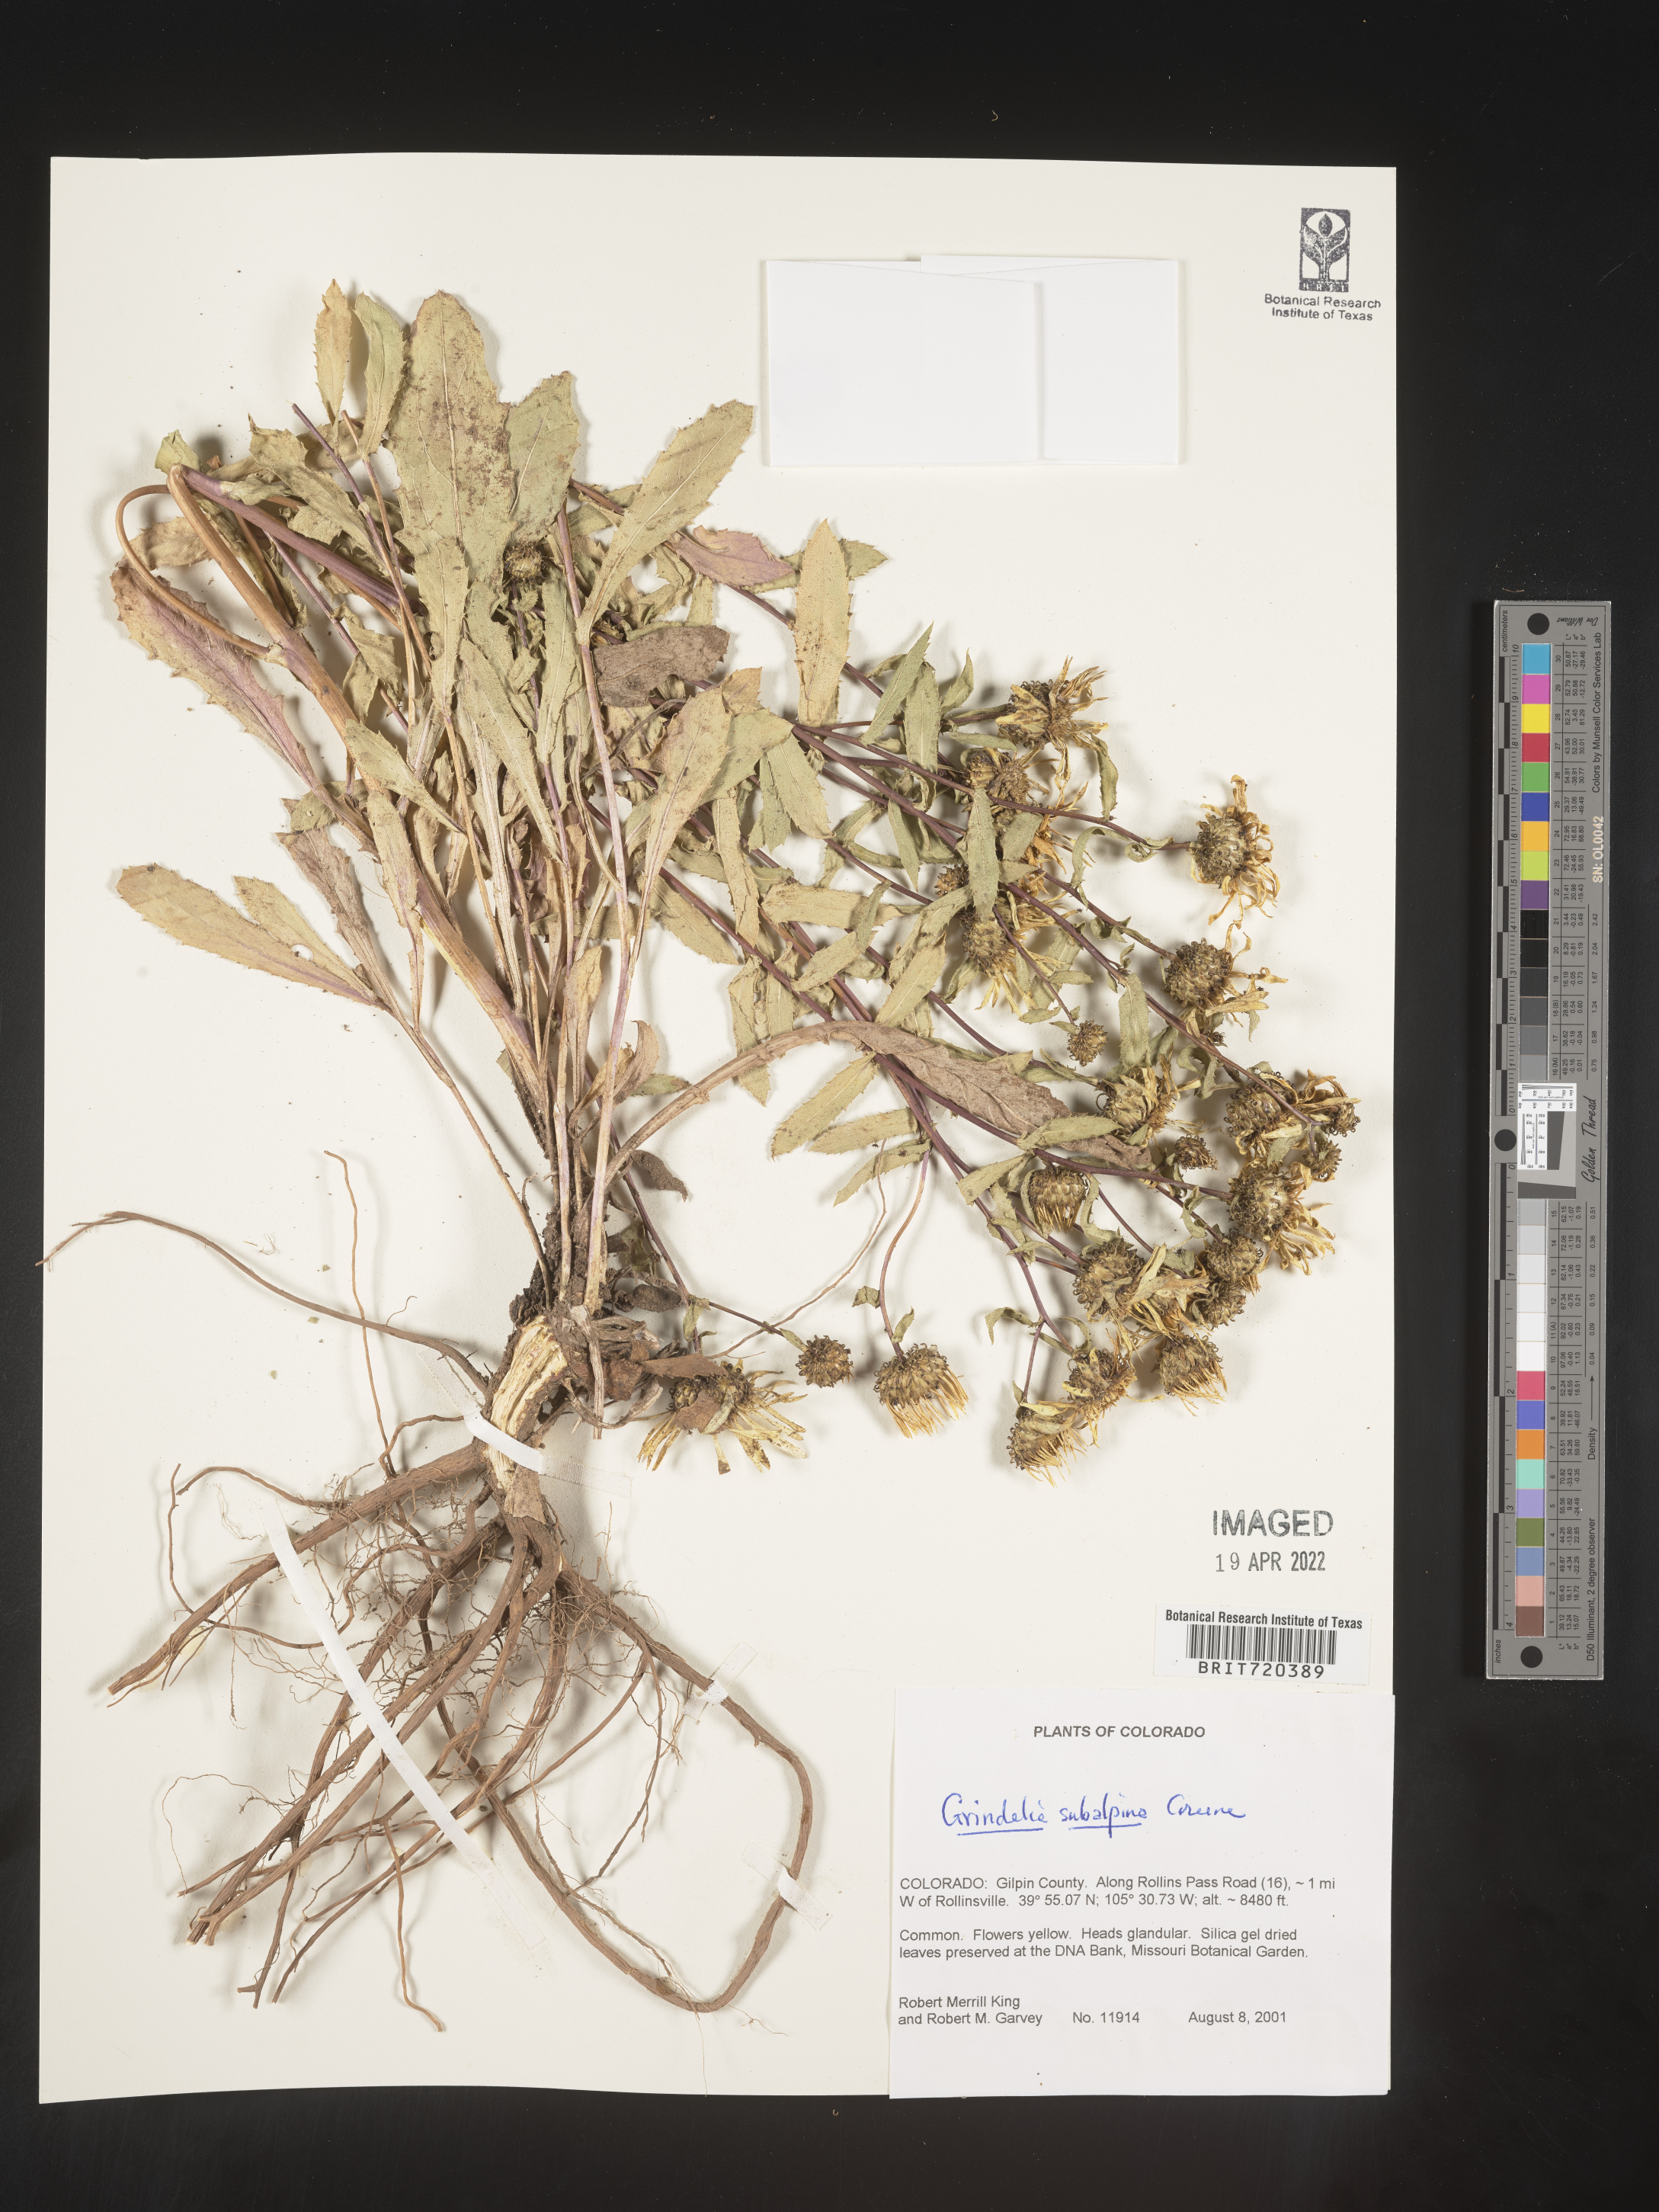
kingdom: Plantae
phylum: Tracheophyta
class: Magnoliopsida
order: Asterales
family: Asteraceae
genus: Grindelia
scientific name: Grindelia subalpina
